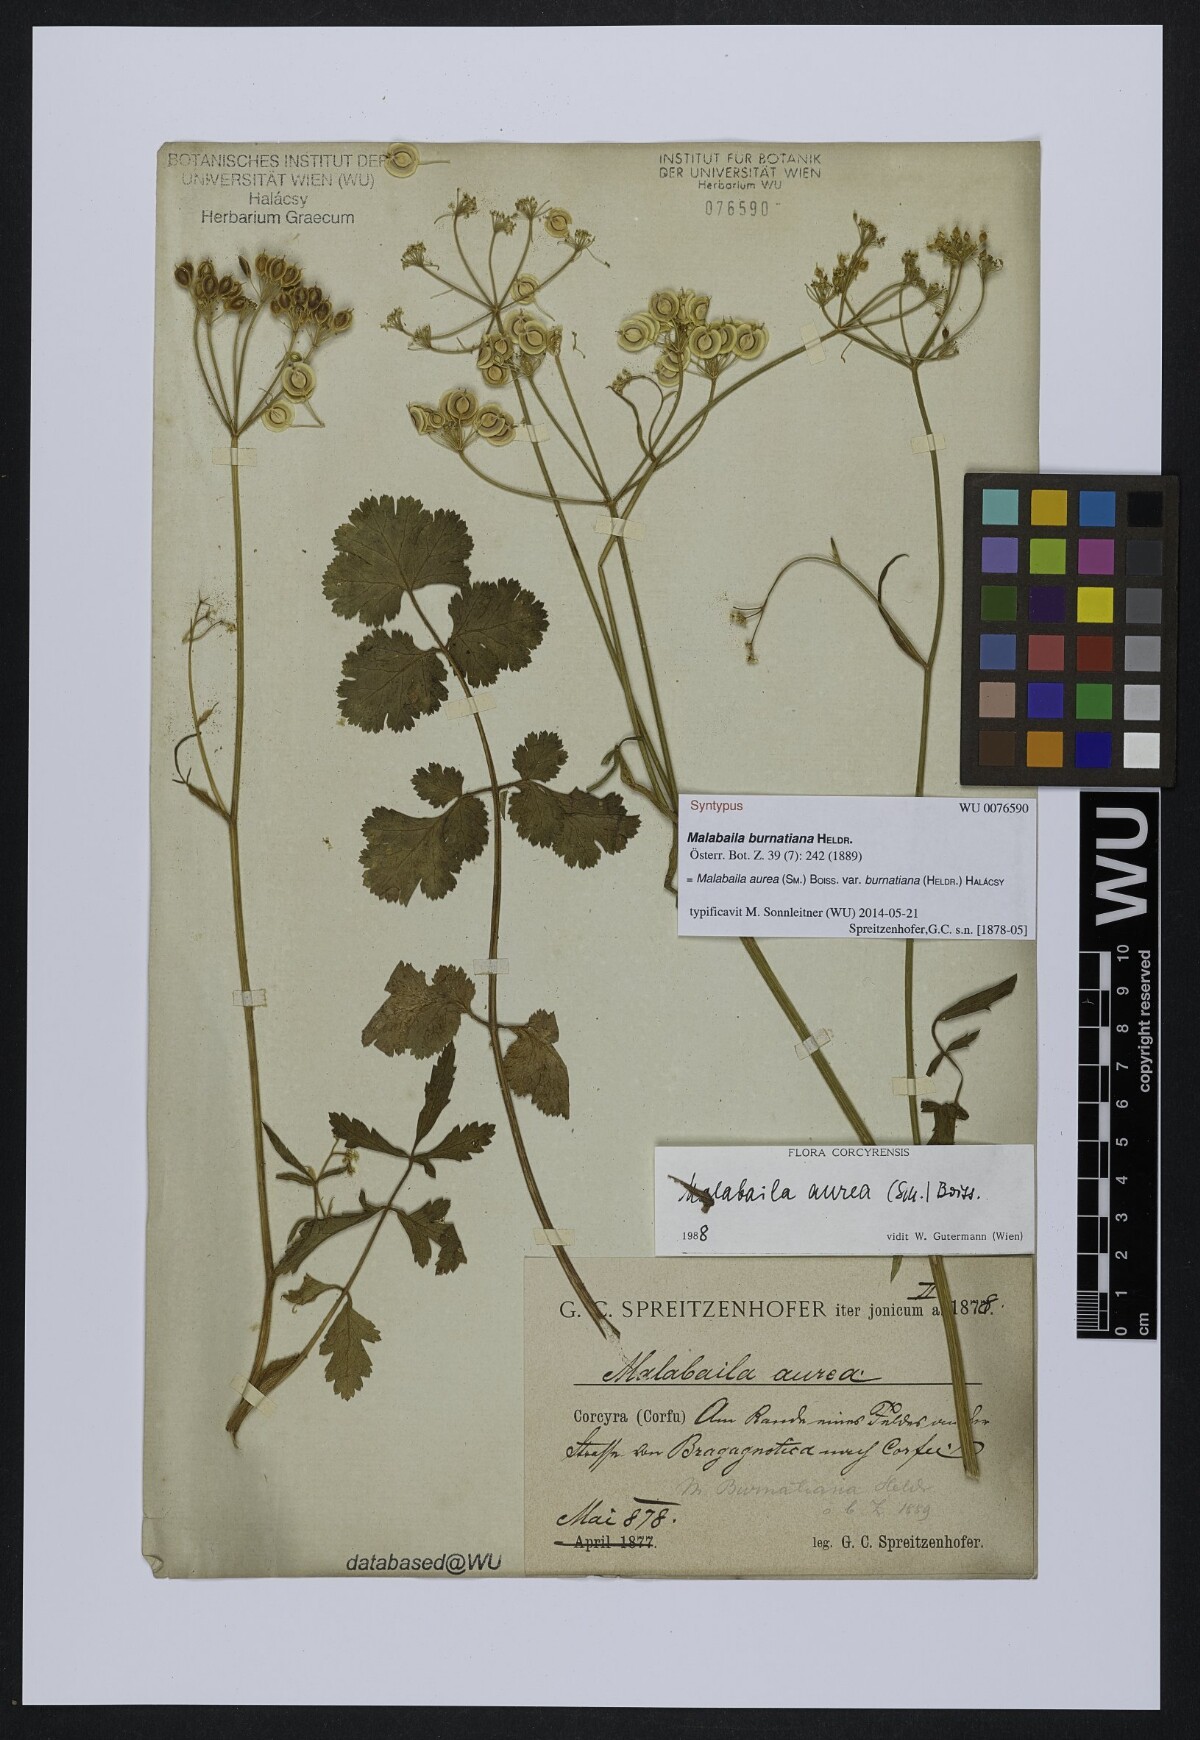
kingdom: Plantae
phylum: Tracheophyta
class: Magnoliopsida
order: Apiales
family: Apiaceae
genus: Leiotulus
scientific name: Leiotulus aureus
